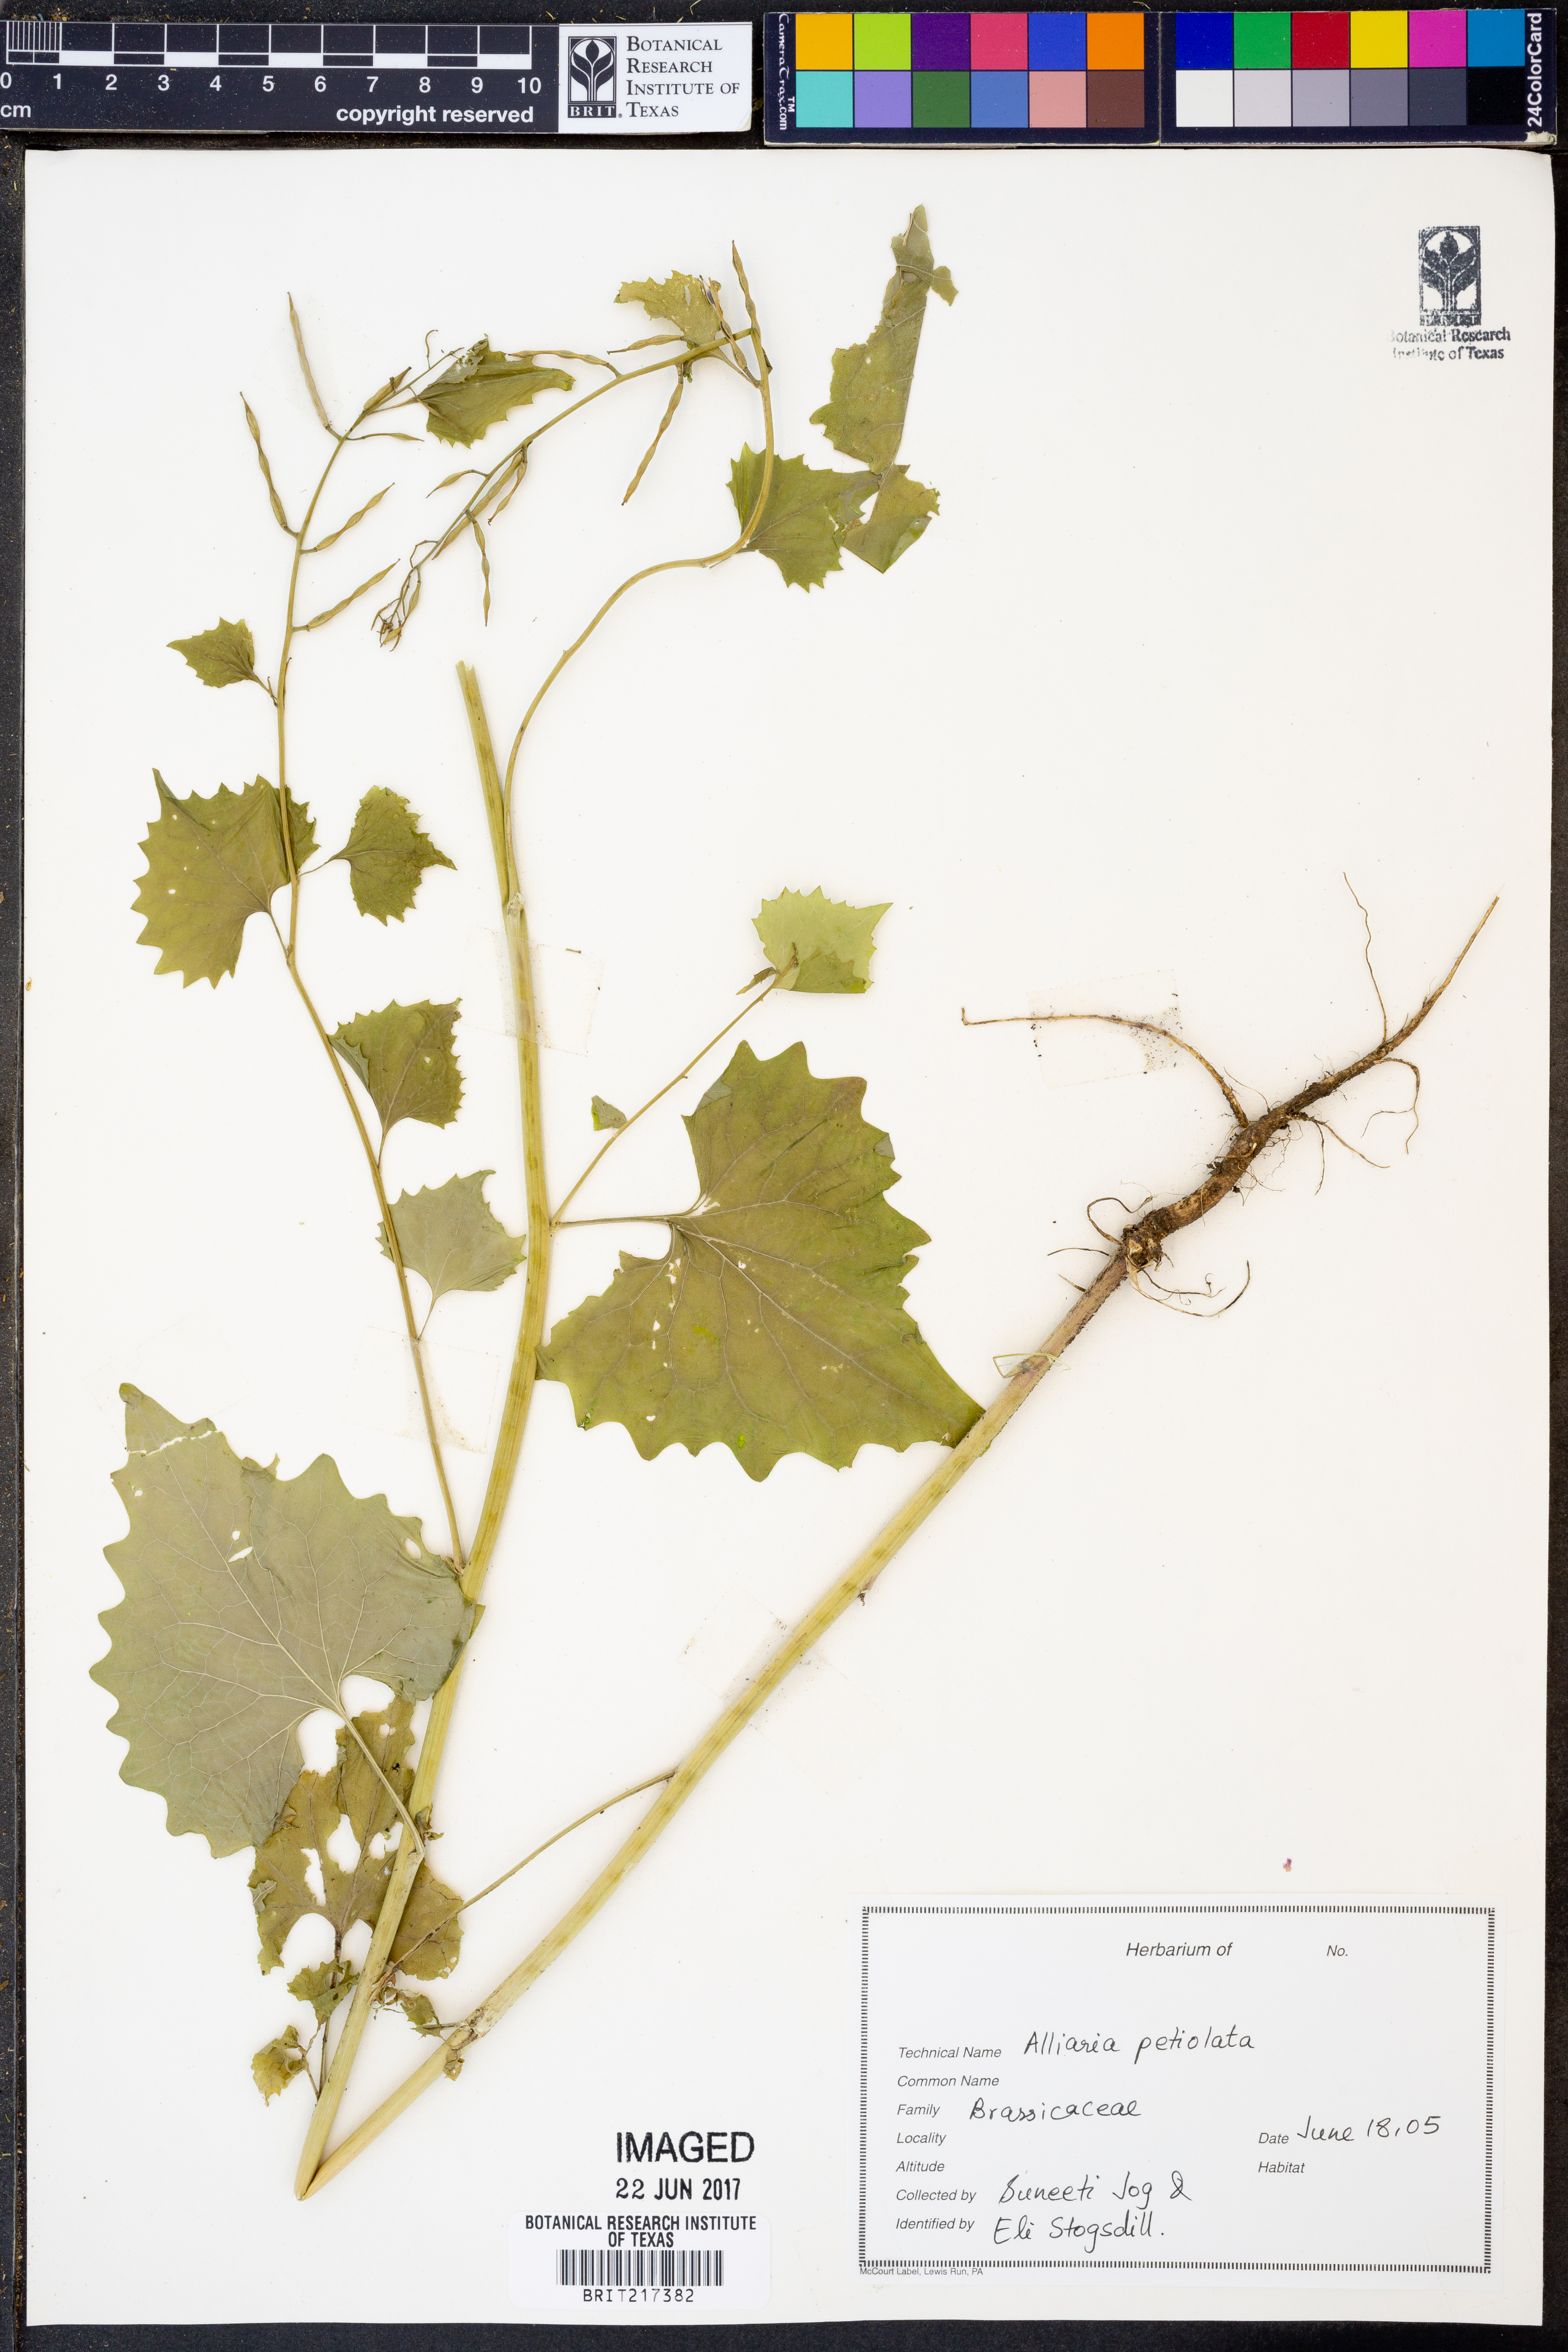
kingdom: Plantae
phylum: Tracheophyta
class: Magnoliopsida
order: Brassicales
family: Brassicaceae
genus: Alliaria
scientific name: Alliaria petiolata
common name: Garlic mustard
